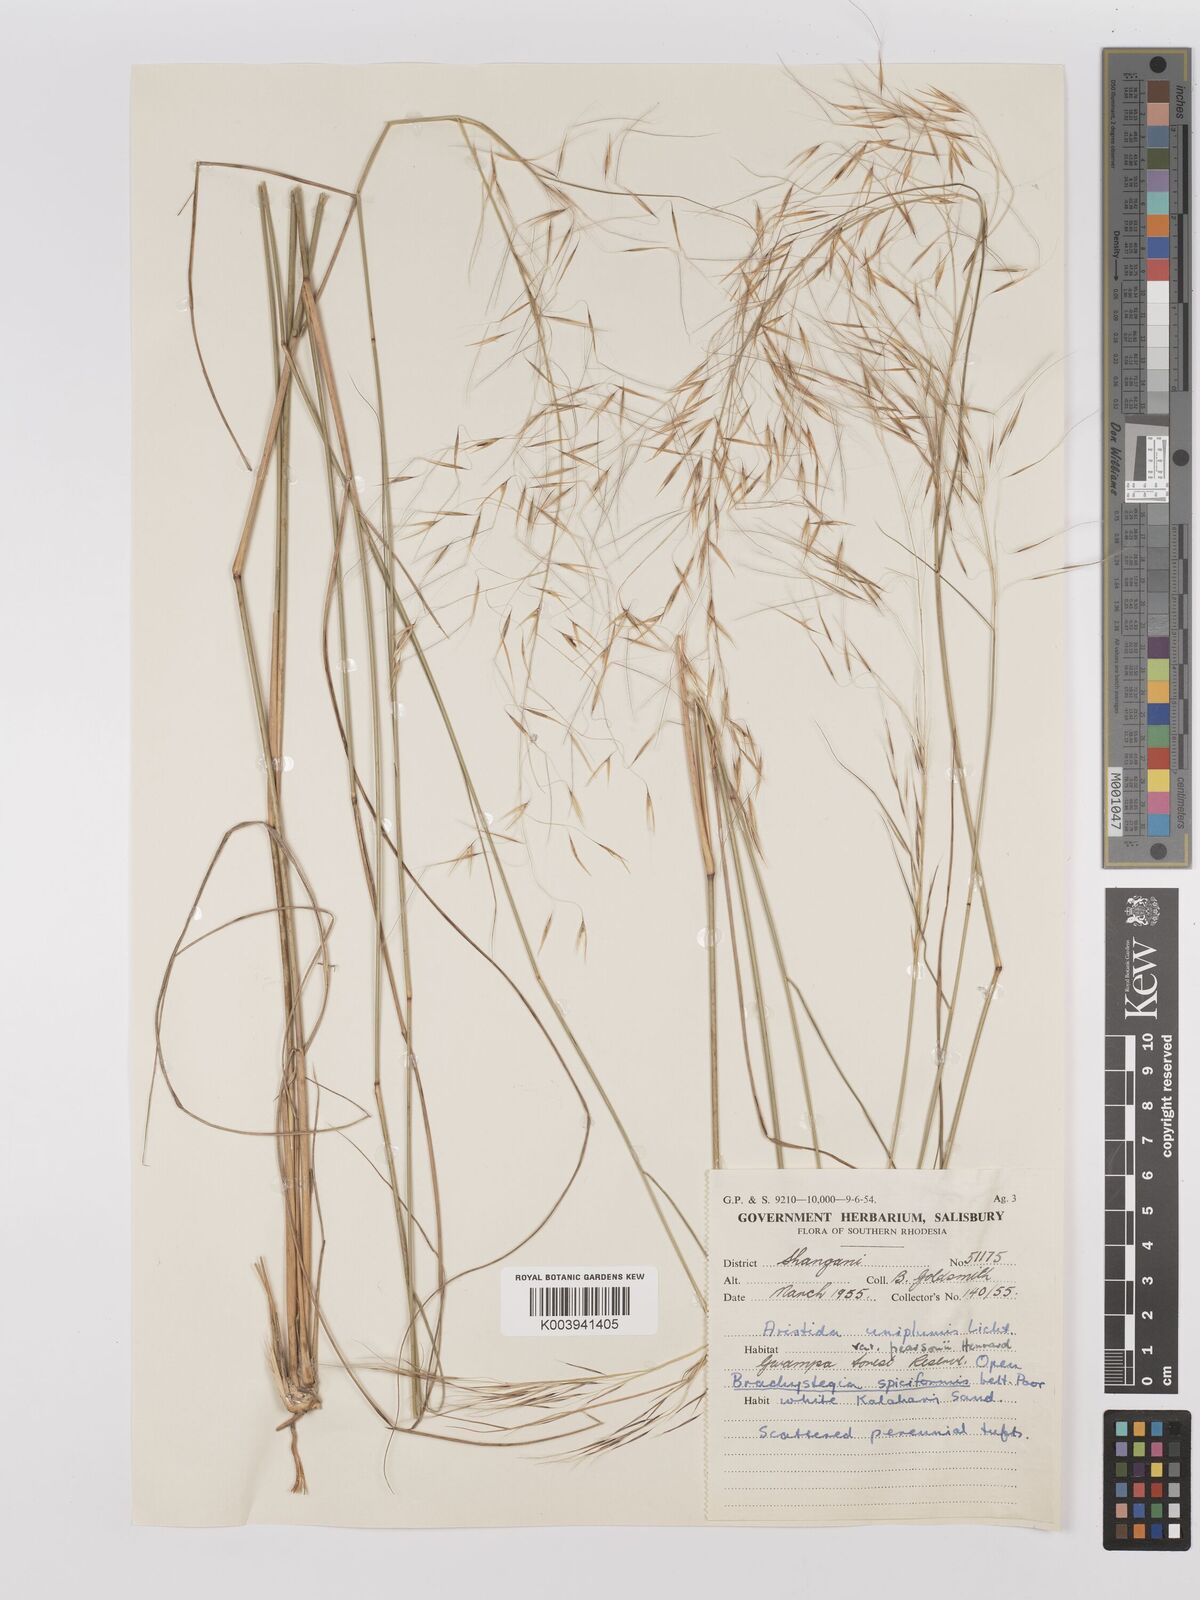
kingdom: Plantae
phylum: Tracheophyta
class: Liliopsida
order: Poales
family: Poaceae
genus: Stipagrostis
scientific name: Stipagrostis uniplumis
